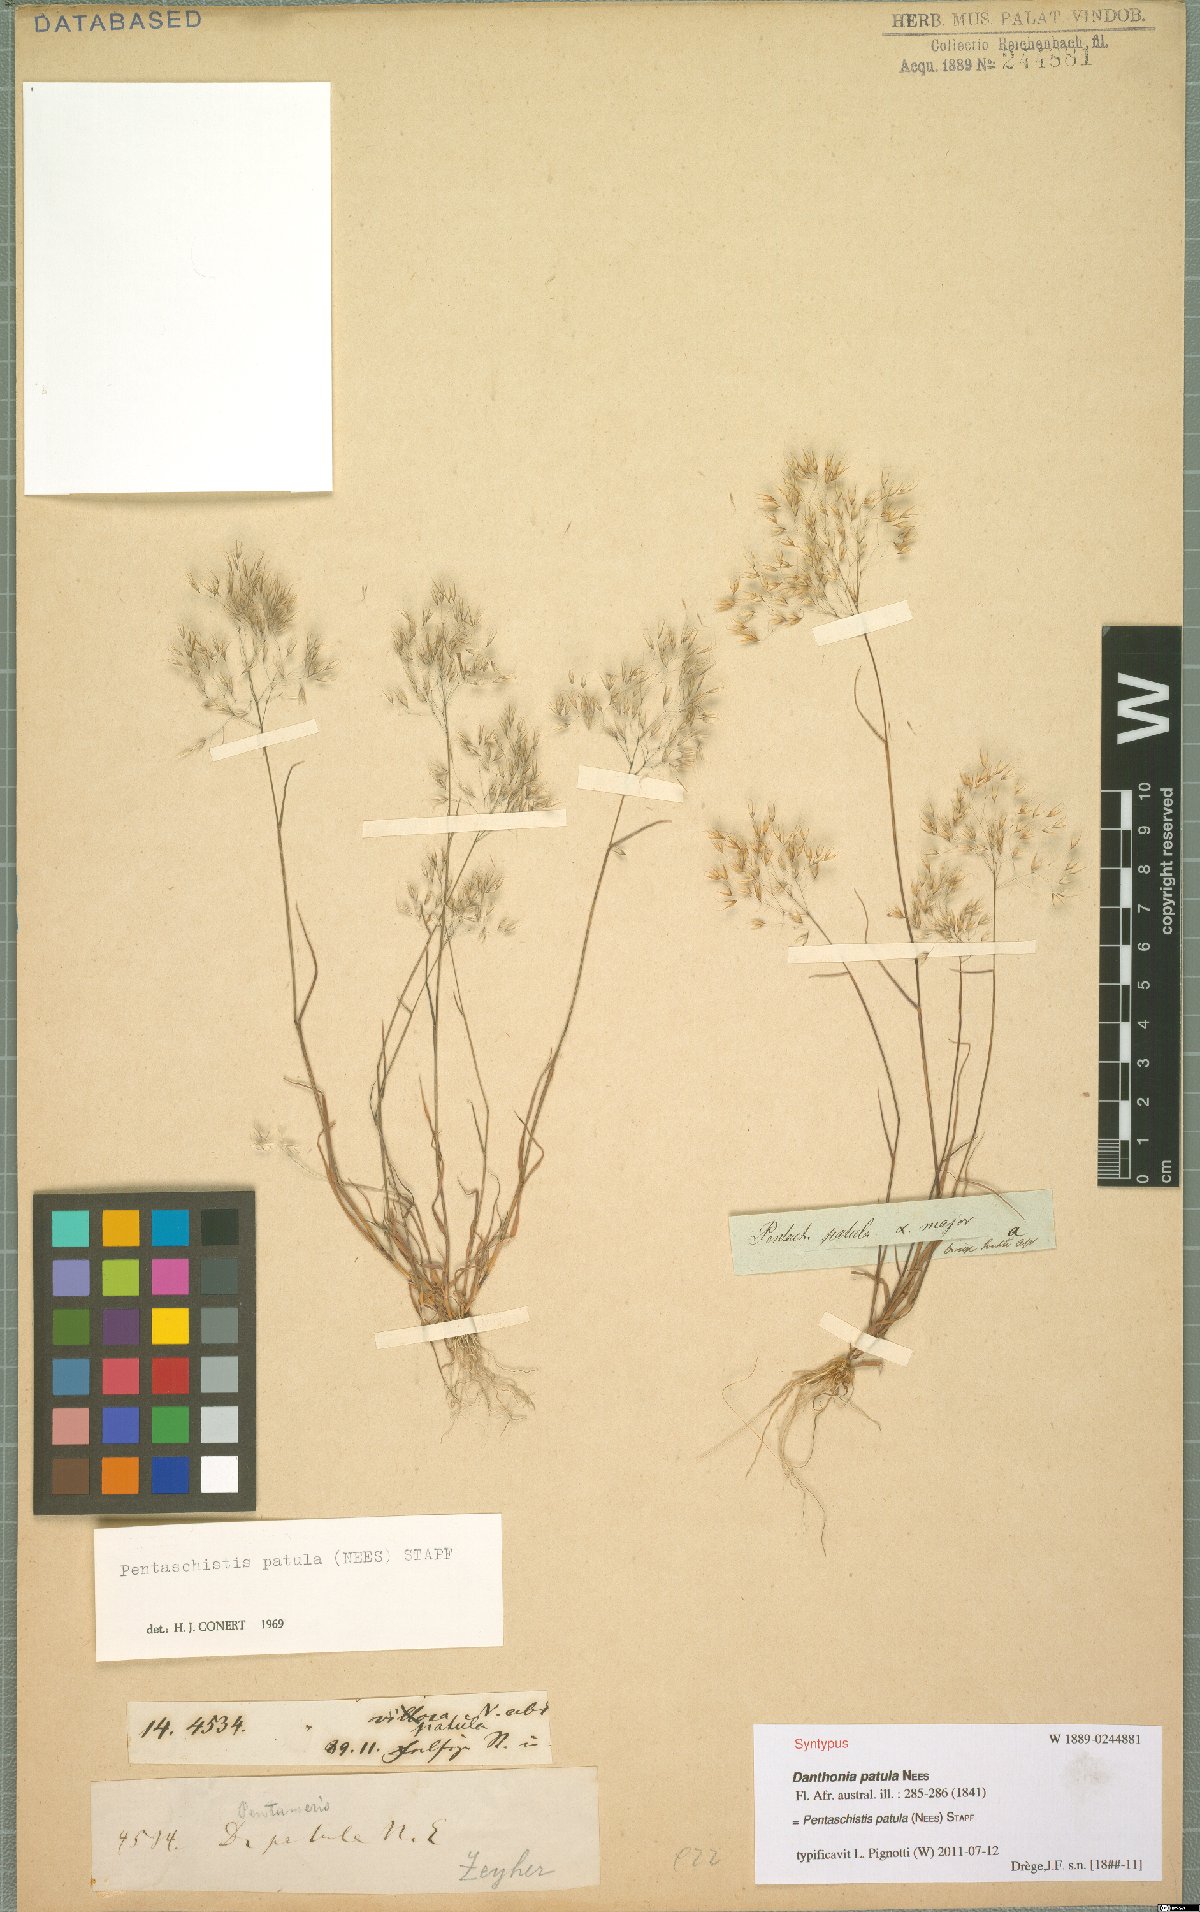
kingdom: Plantae
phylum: Tracheophyta
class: Liliopsida
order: Poales
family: Poaceae
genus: Pentameris
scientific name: Pentameris patula
